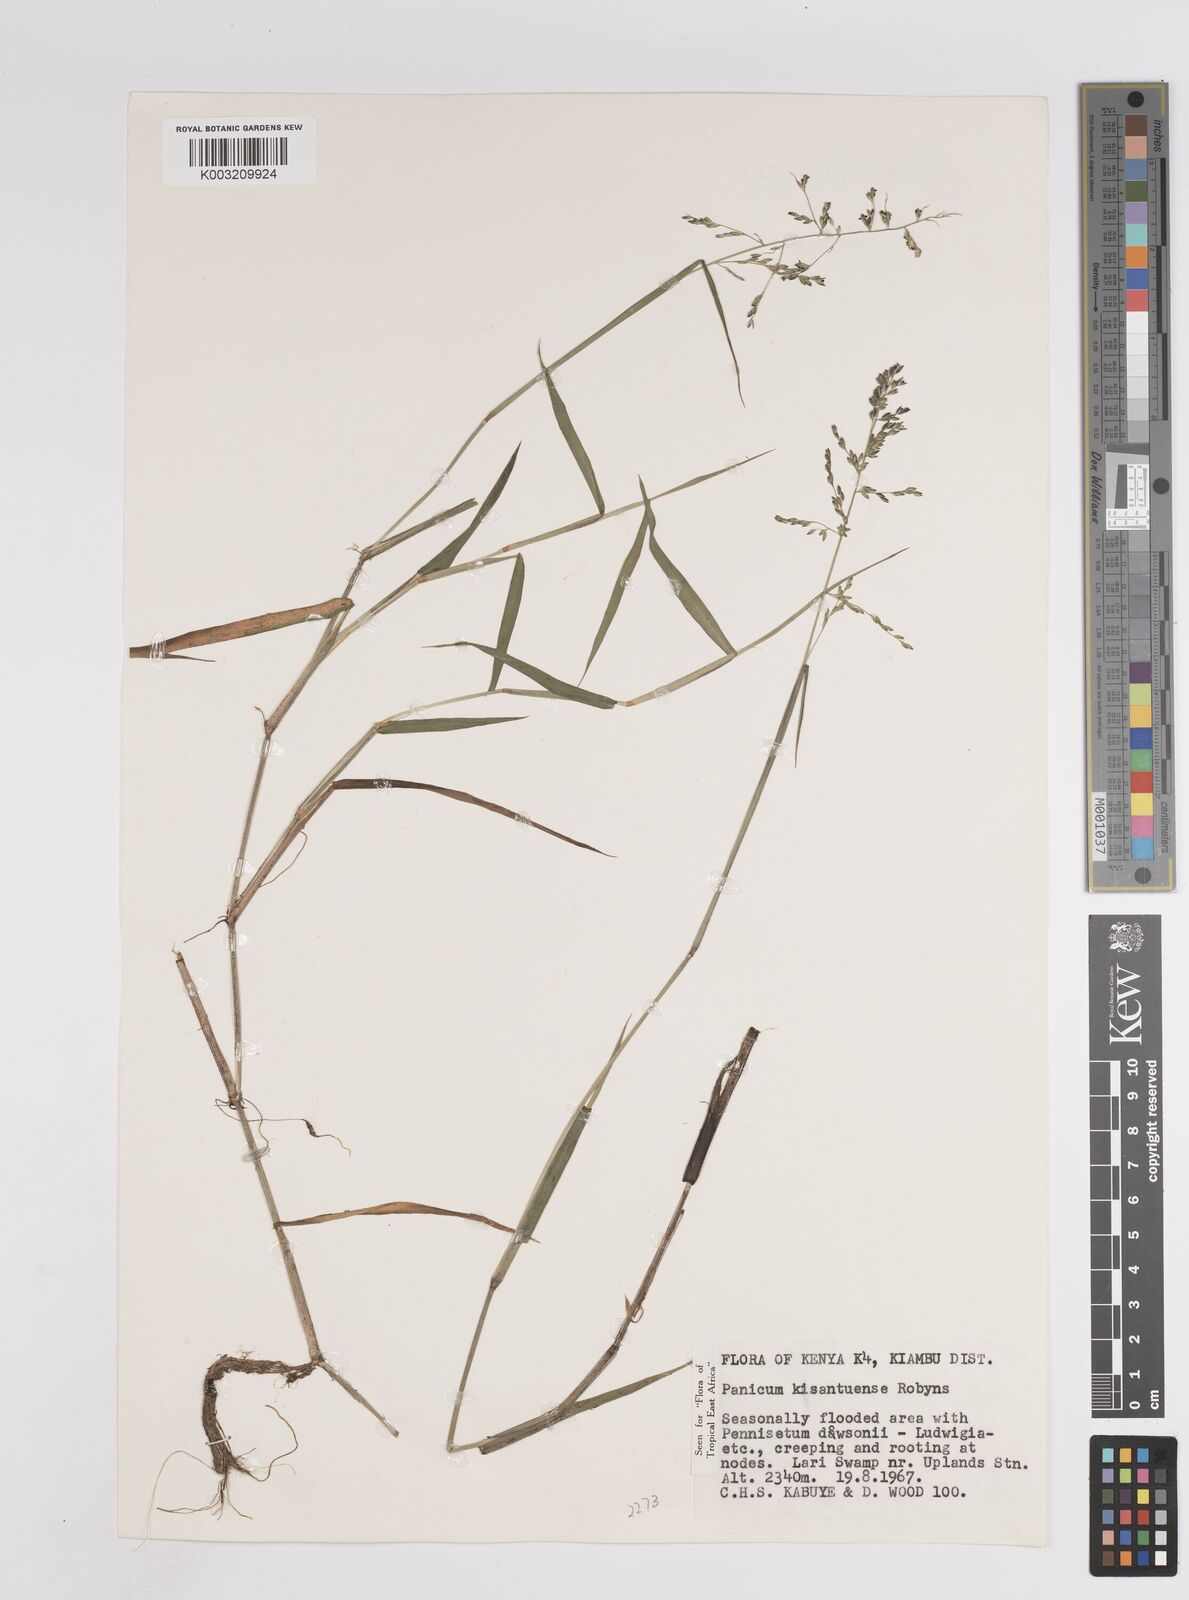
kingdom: Plantae
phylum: Tracheophyta
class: Liliopsida
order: Poales
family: Poaceae
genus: Adenochloa
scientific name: Adenochloa hymeniochila
